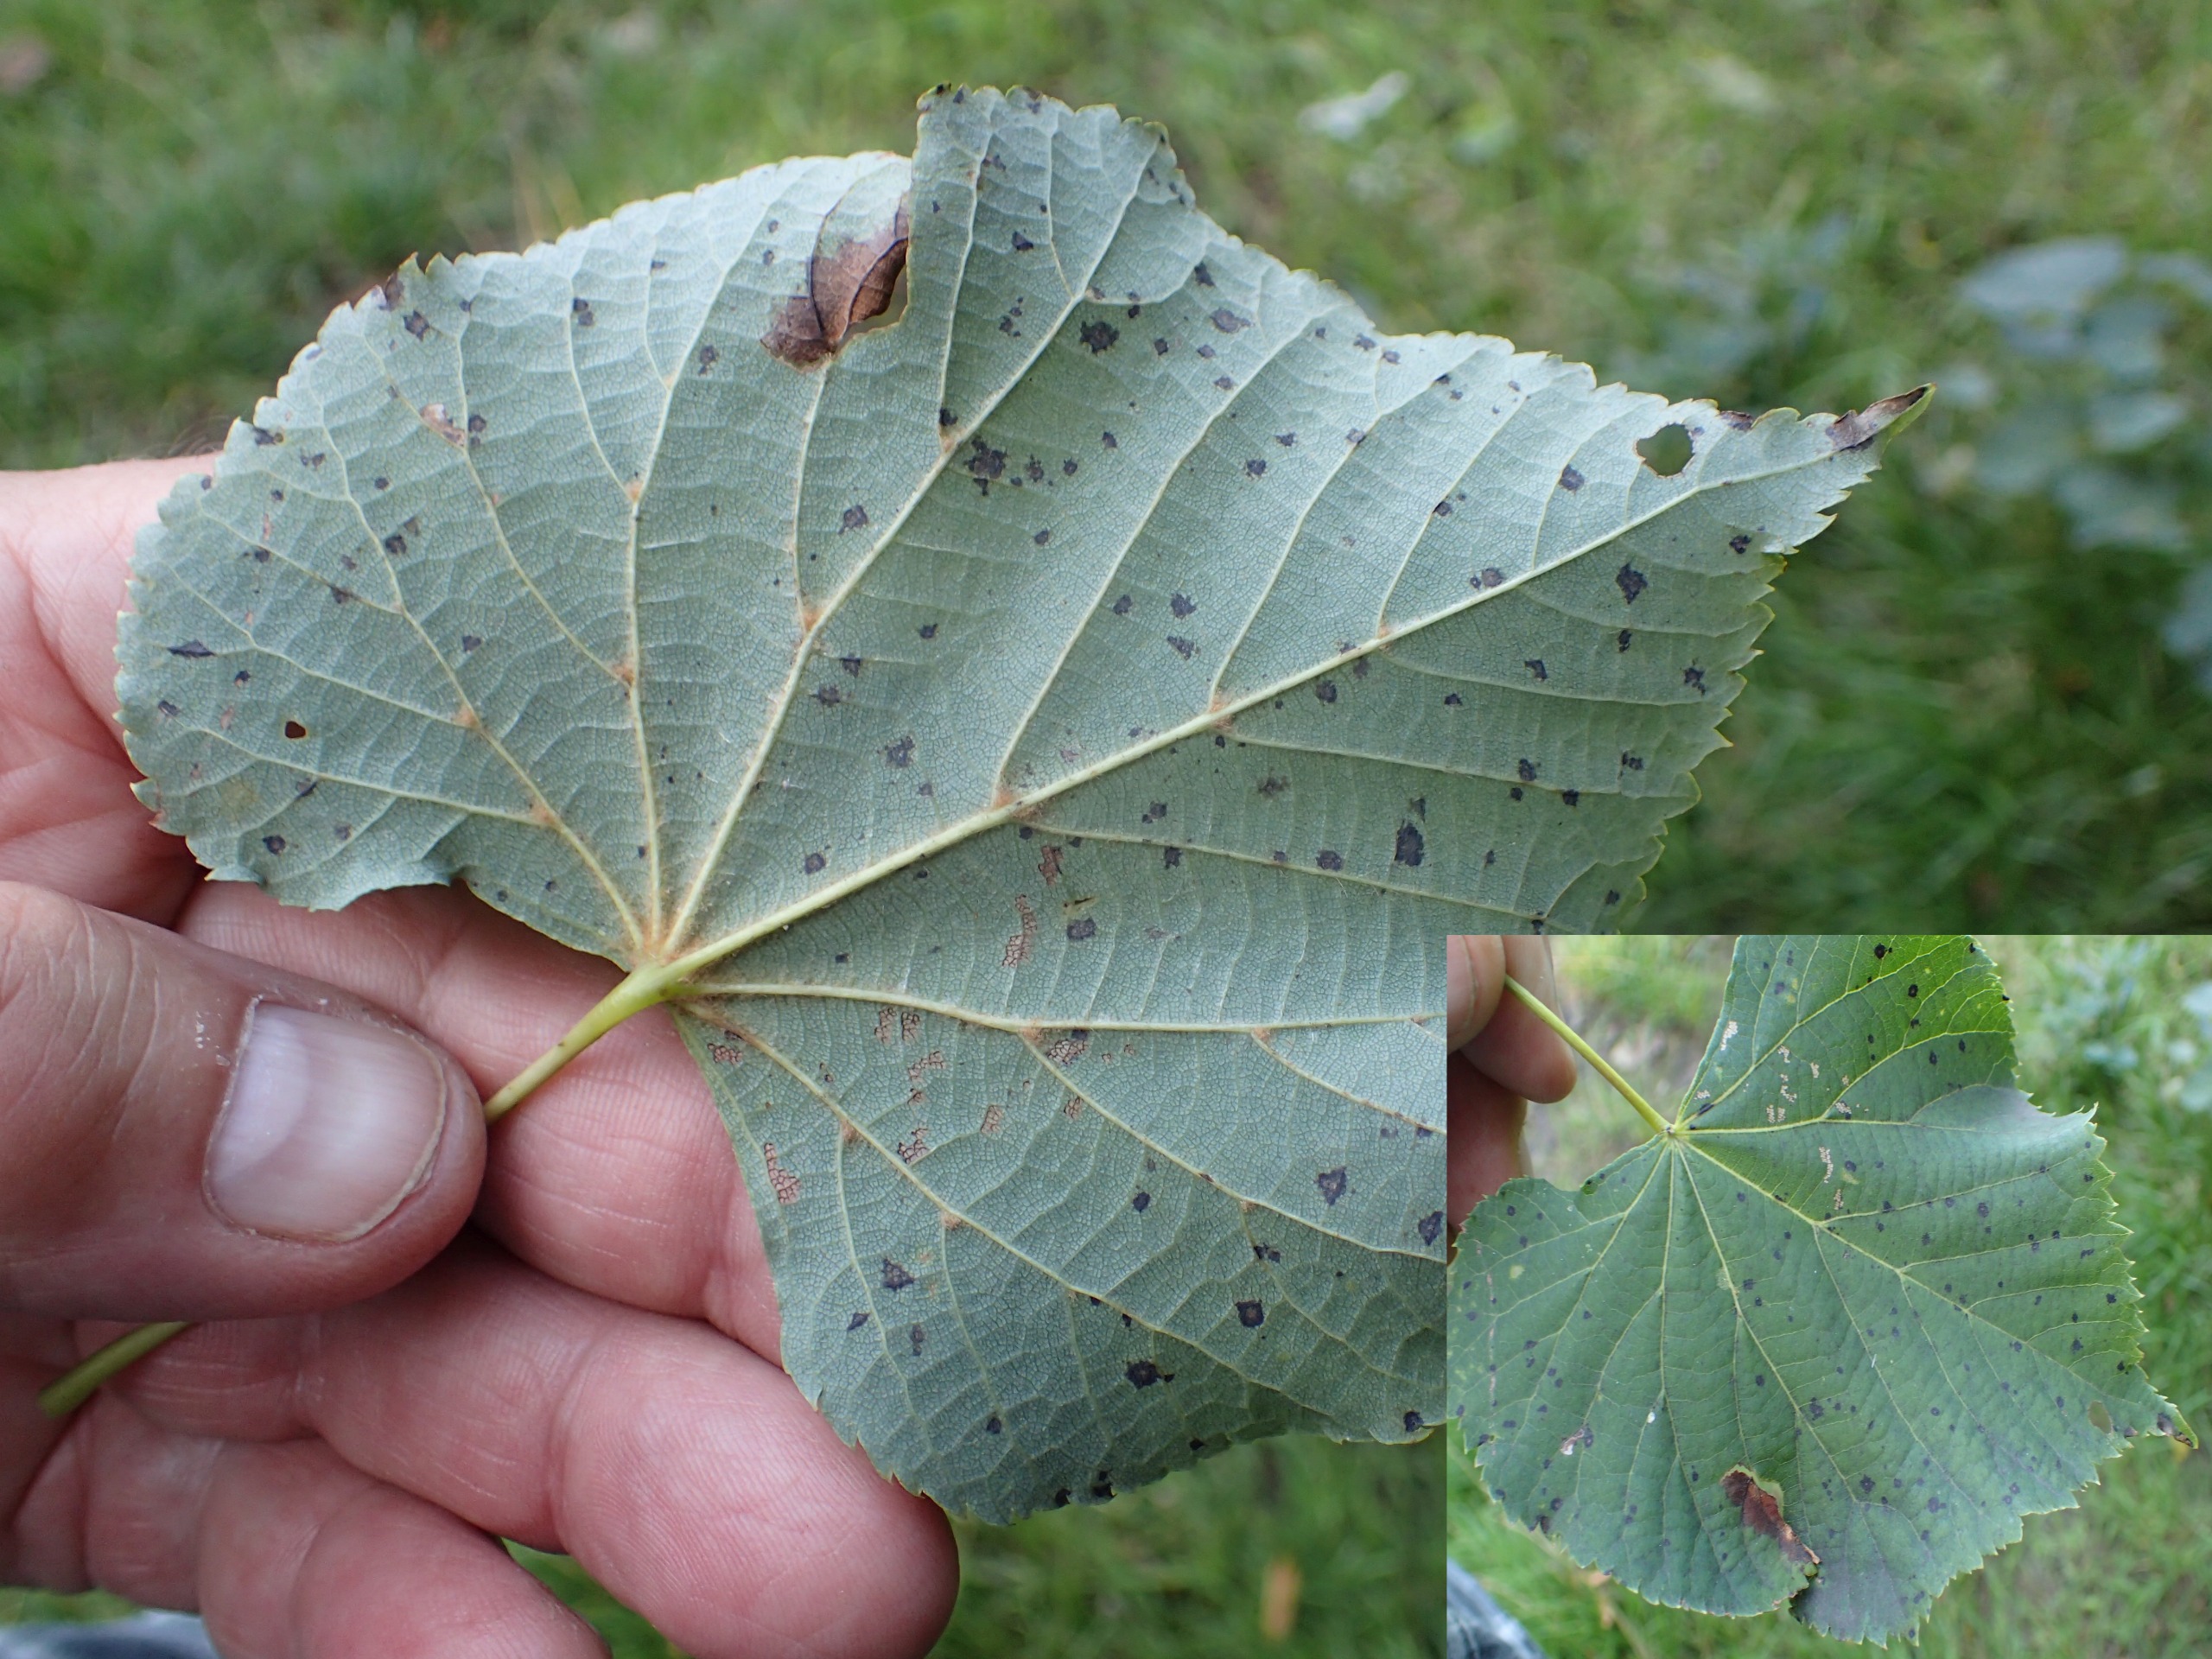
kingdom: Plantae
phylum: Tracheophyta
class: Magnoliopsida
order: Malvales
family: Malvaceae
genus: Tilia
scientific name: Tilia cordata
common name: Småbladet lind
